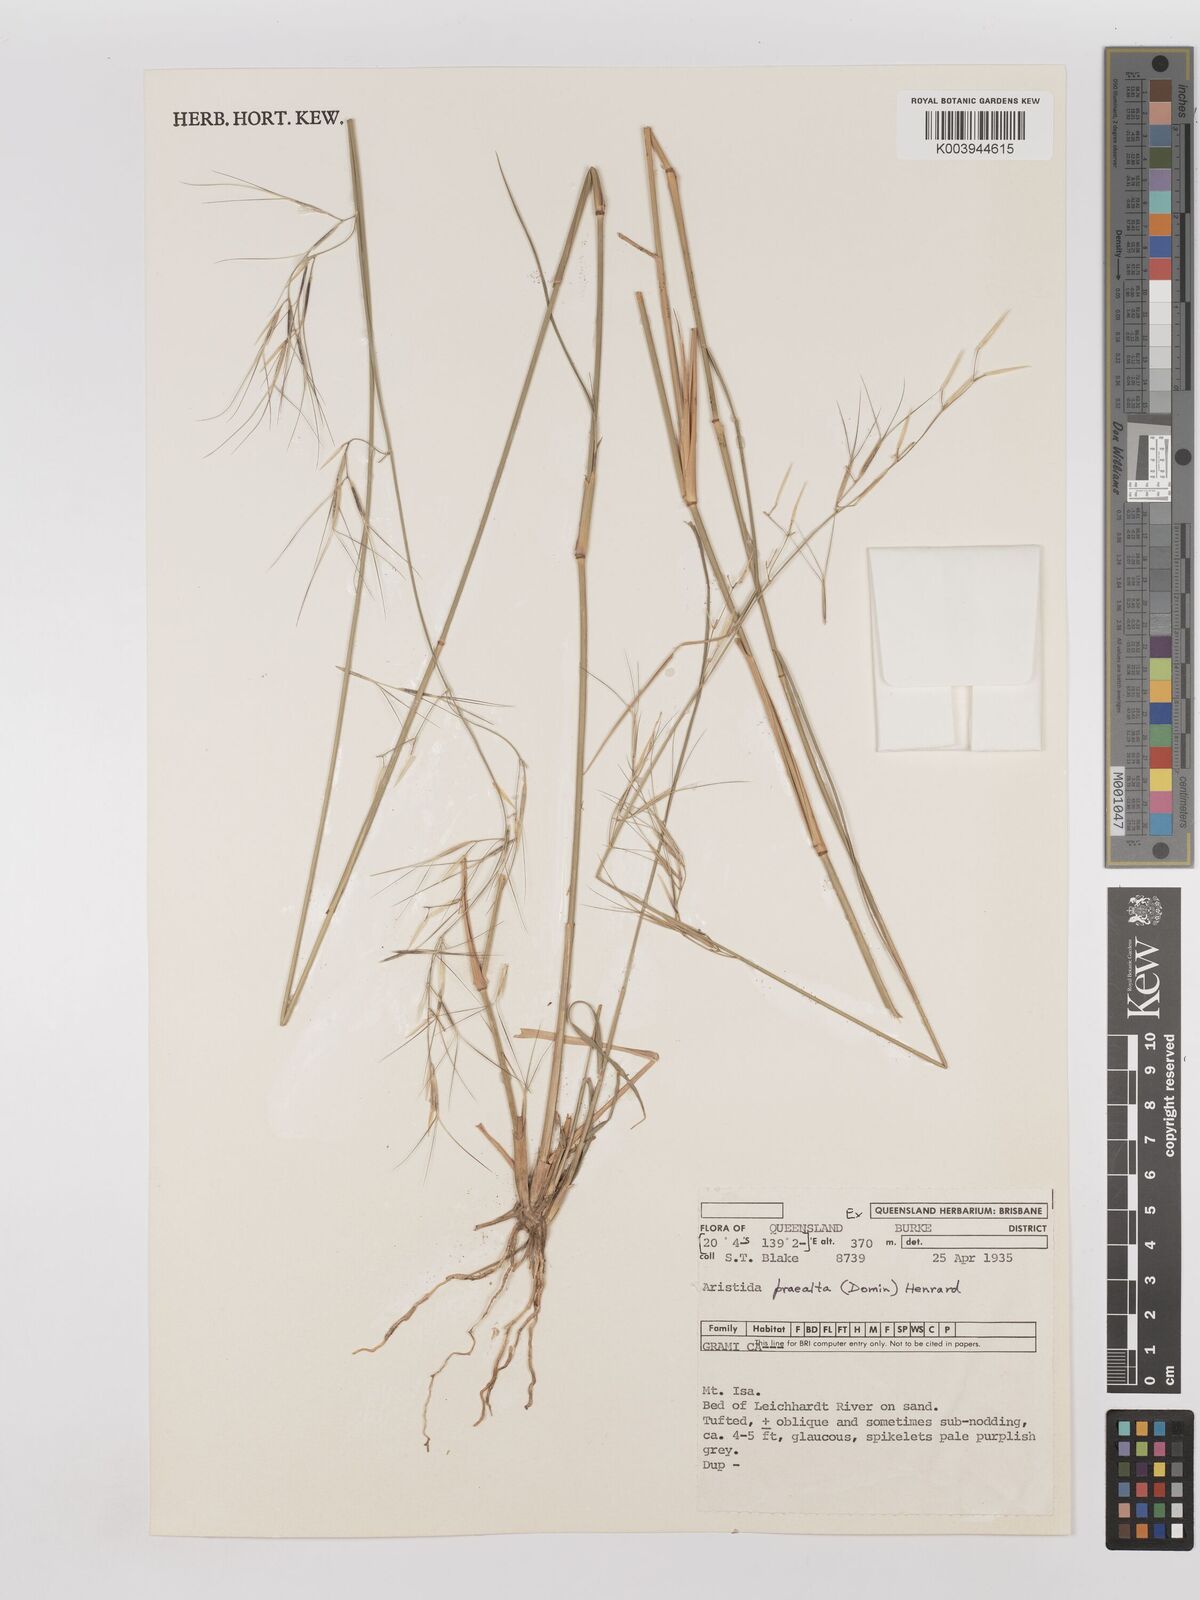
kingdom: Plantae
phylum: Tracheophyta
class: Liliopsida
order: Poales
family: Poaceae
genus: Aristida
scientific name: Aristida calycina
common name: Dark wire grass
